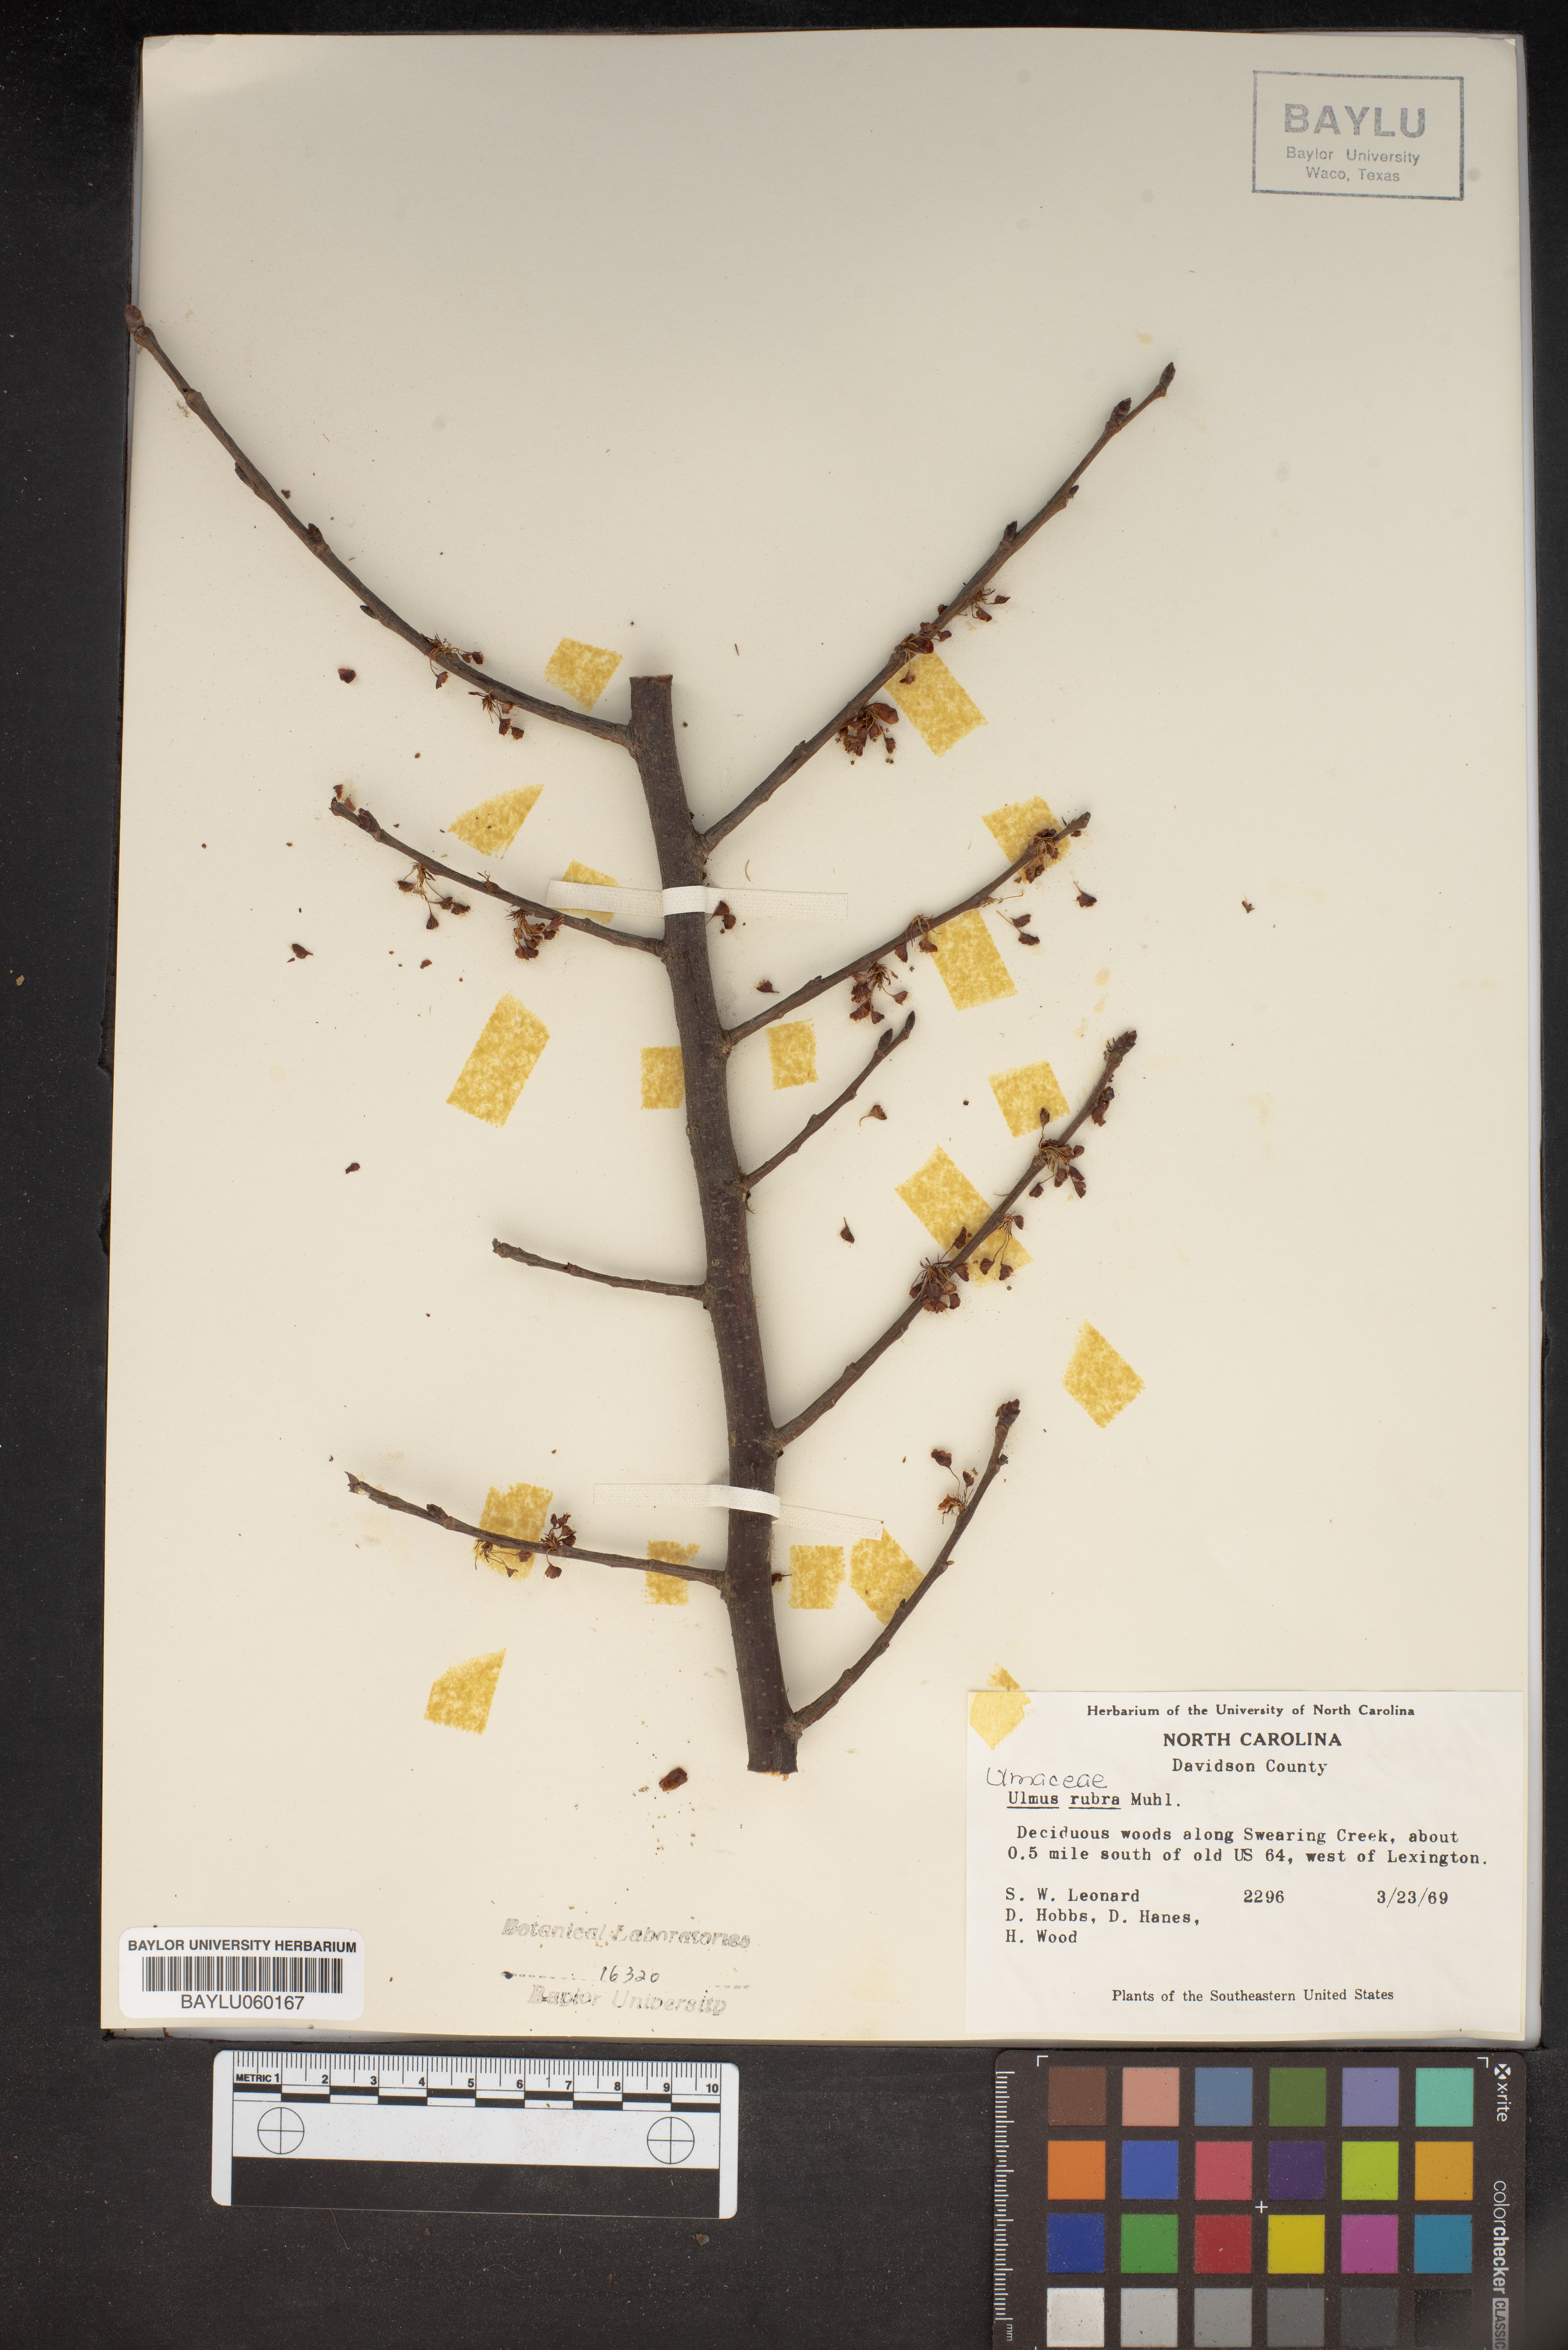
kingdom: Plantae
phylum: Tracheophyta
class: Magnoliopsida
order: Rosales
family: Ulmaceae
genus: Ulmus
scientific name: Ulmus rubra
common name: Slippery elm
